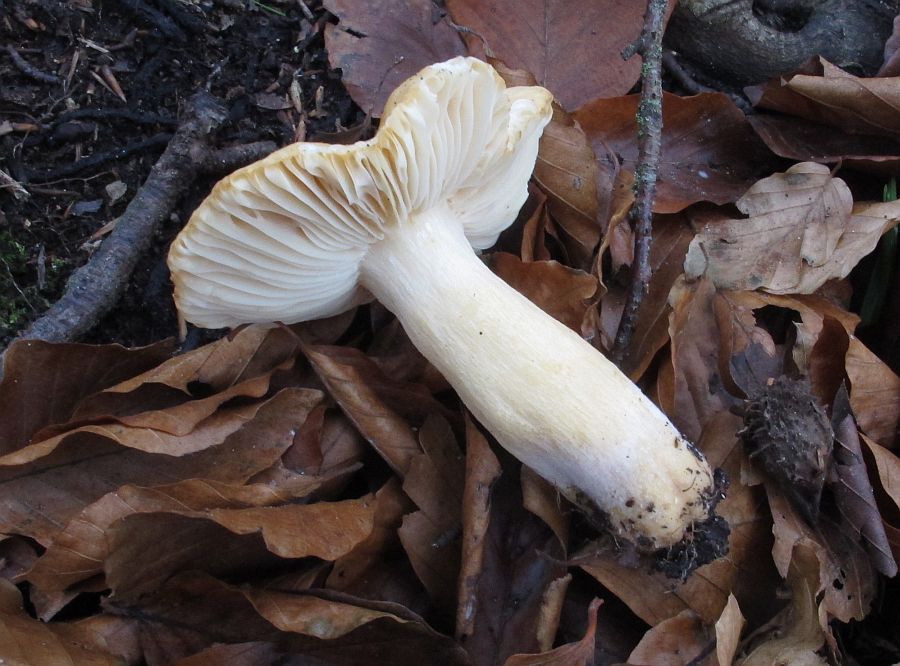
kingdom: Fungi
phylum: Basidiomycota
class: Agaricomycetes
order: Russulales
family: Russulaceae
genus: Russula
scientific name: Russula fellea
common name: galde-skørhat
